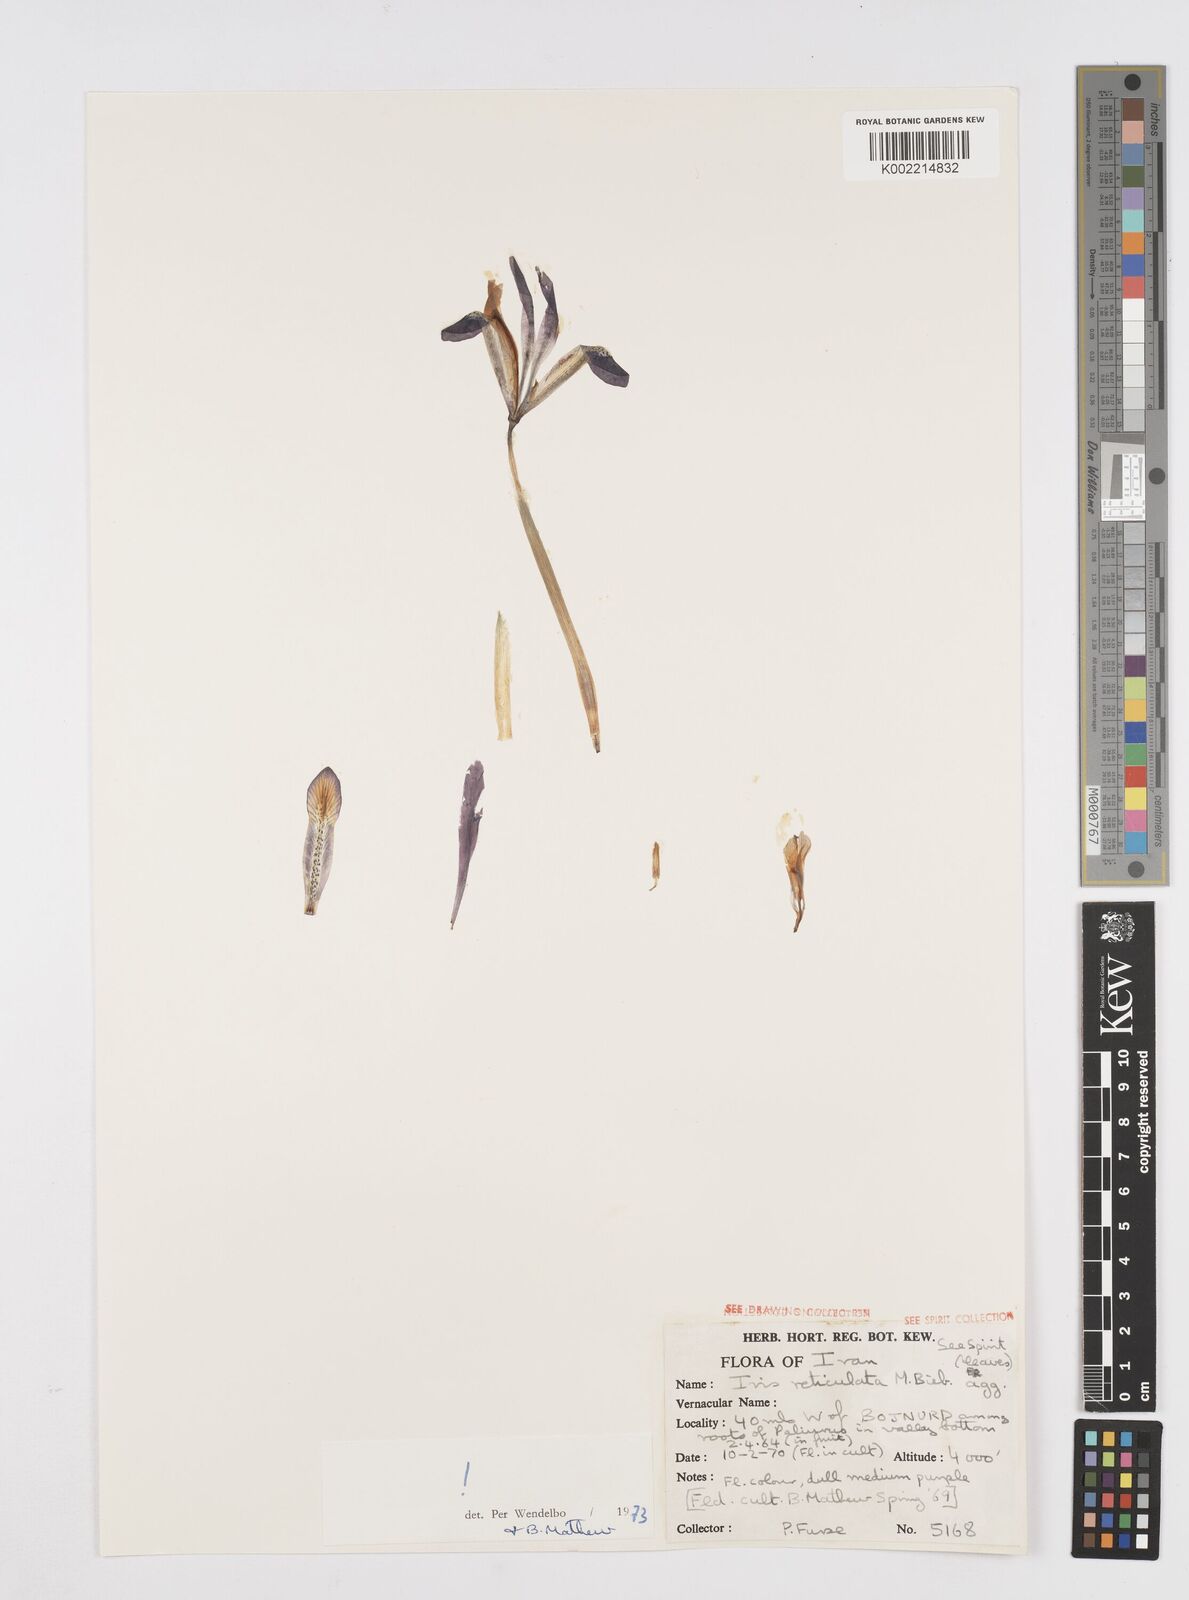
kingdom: Plantae
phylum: Tracheophyta
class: Liliopsida
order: Asparagales
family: Iridaceae
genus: Iris
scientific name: Iris reticulata
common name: Netted iris
